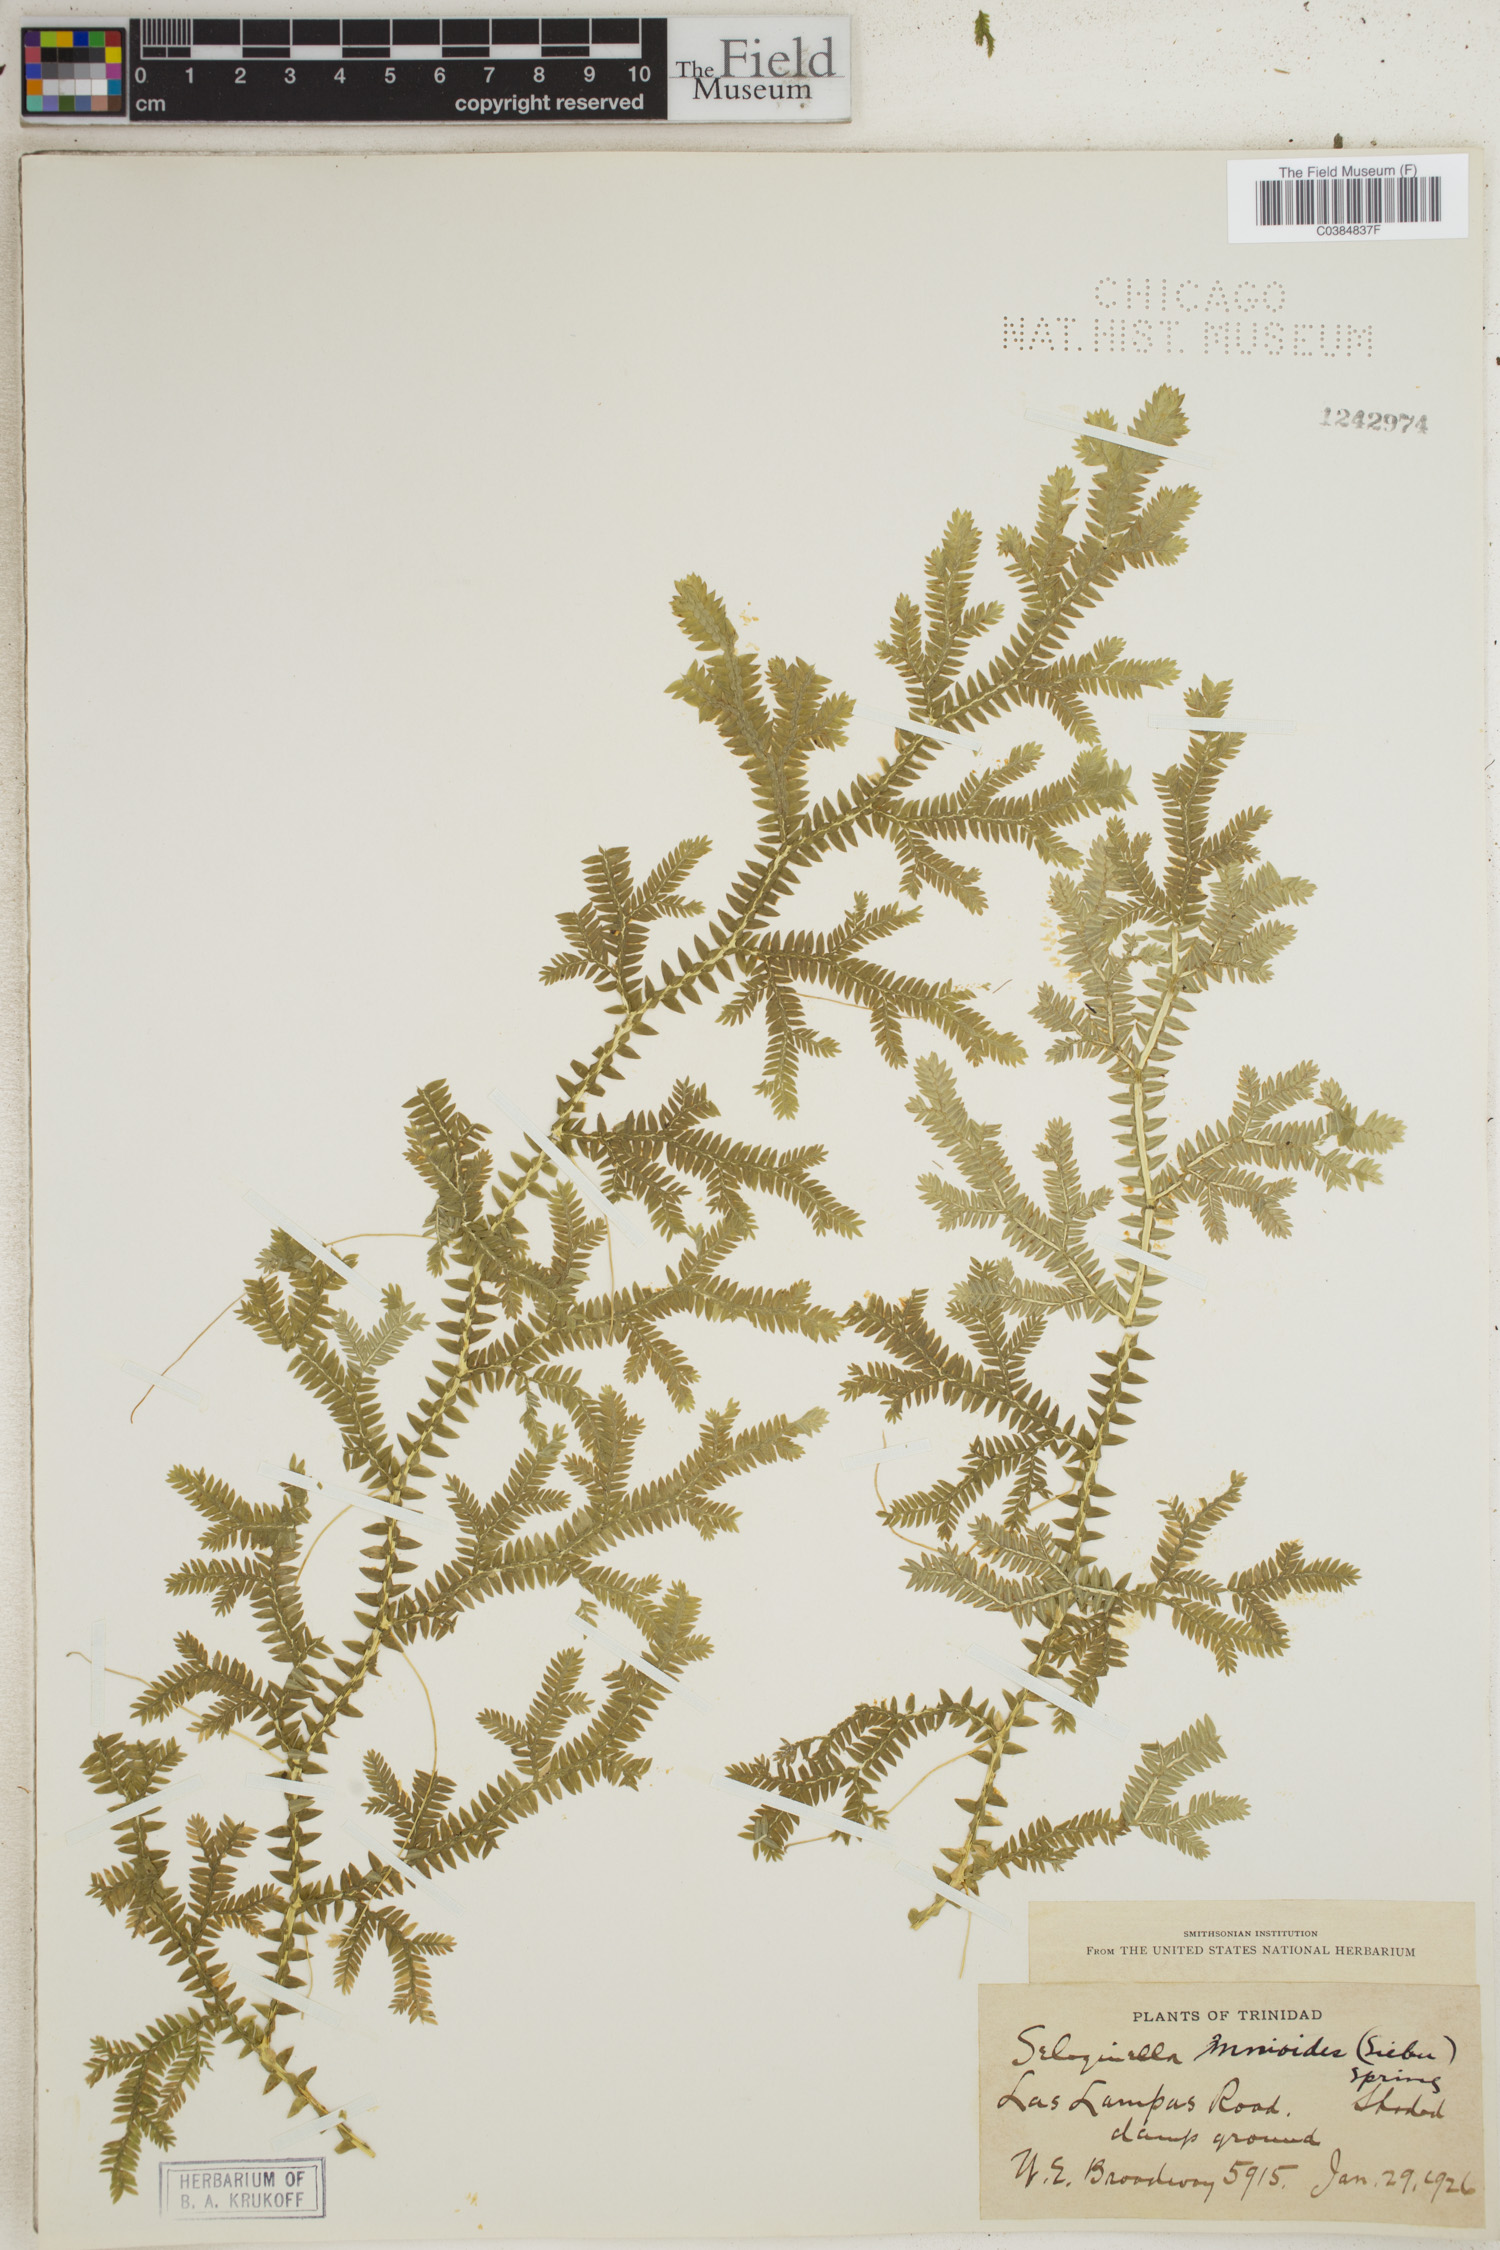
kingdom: Plantae
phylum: Tracheophyta
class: Lycopodiopsida
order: Selaginellales
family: Selaginellaceae
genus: Selaginella
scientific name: Selaginella diffusa
